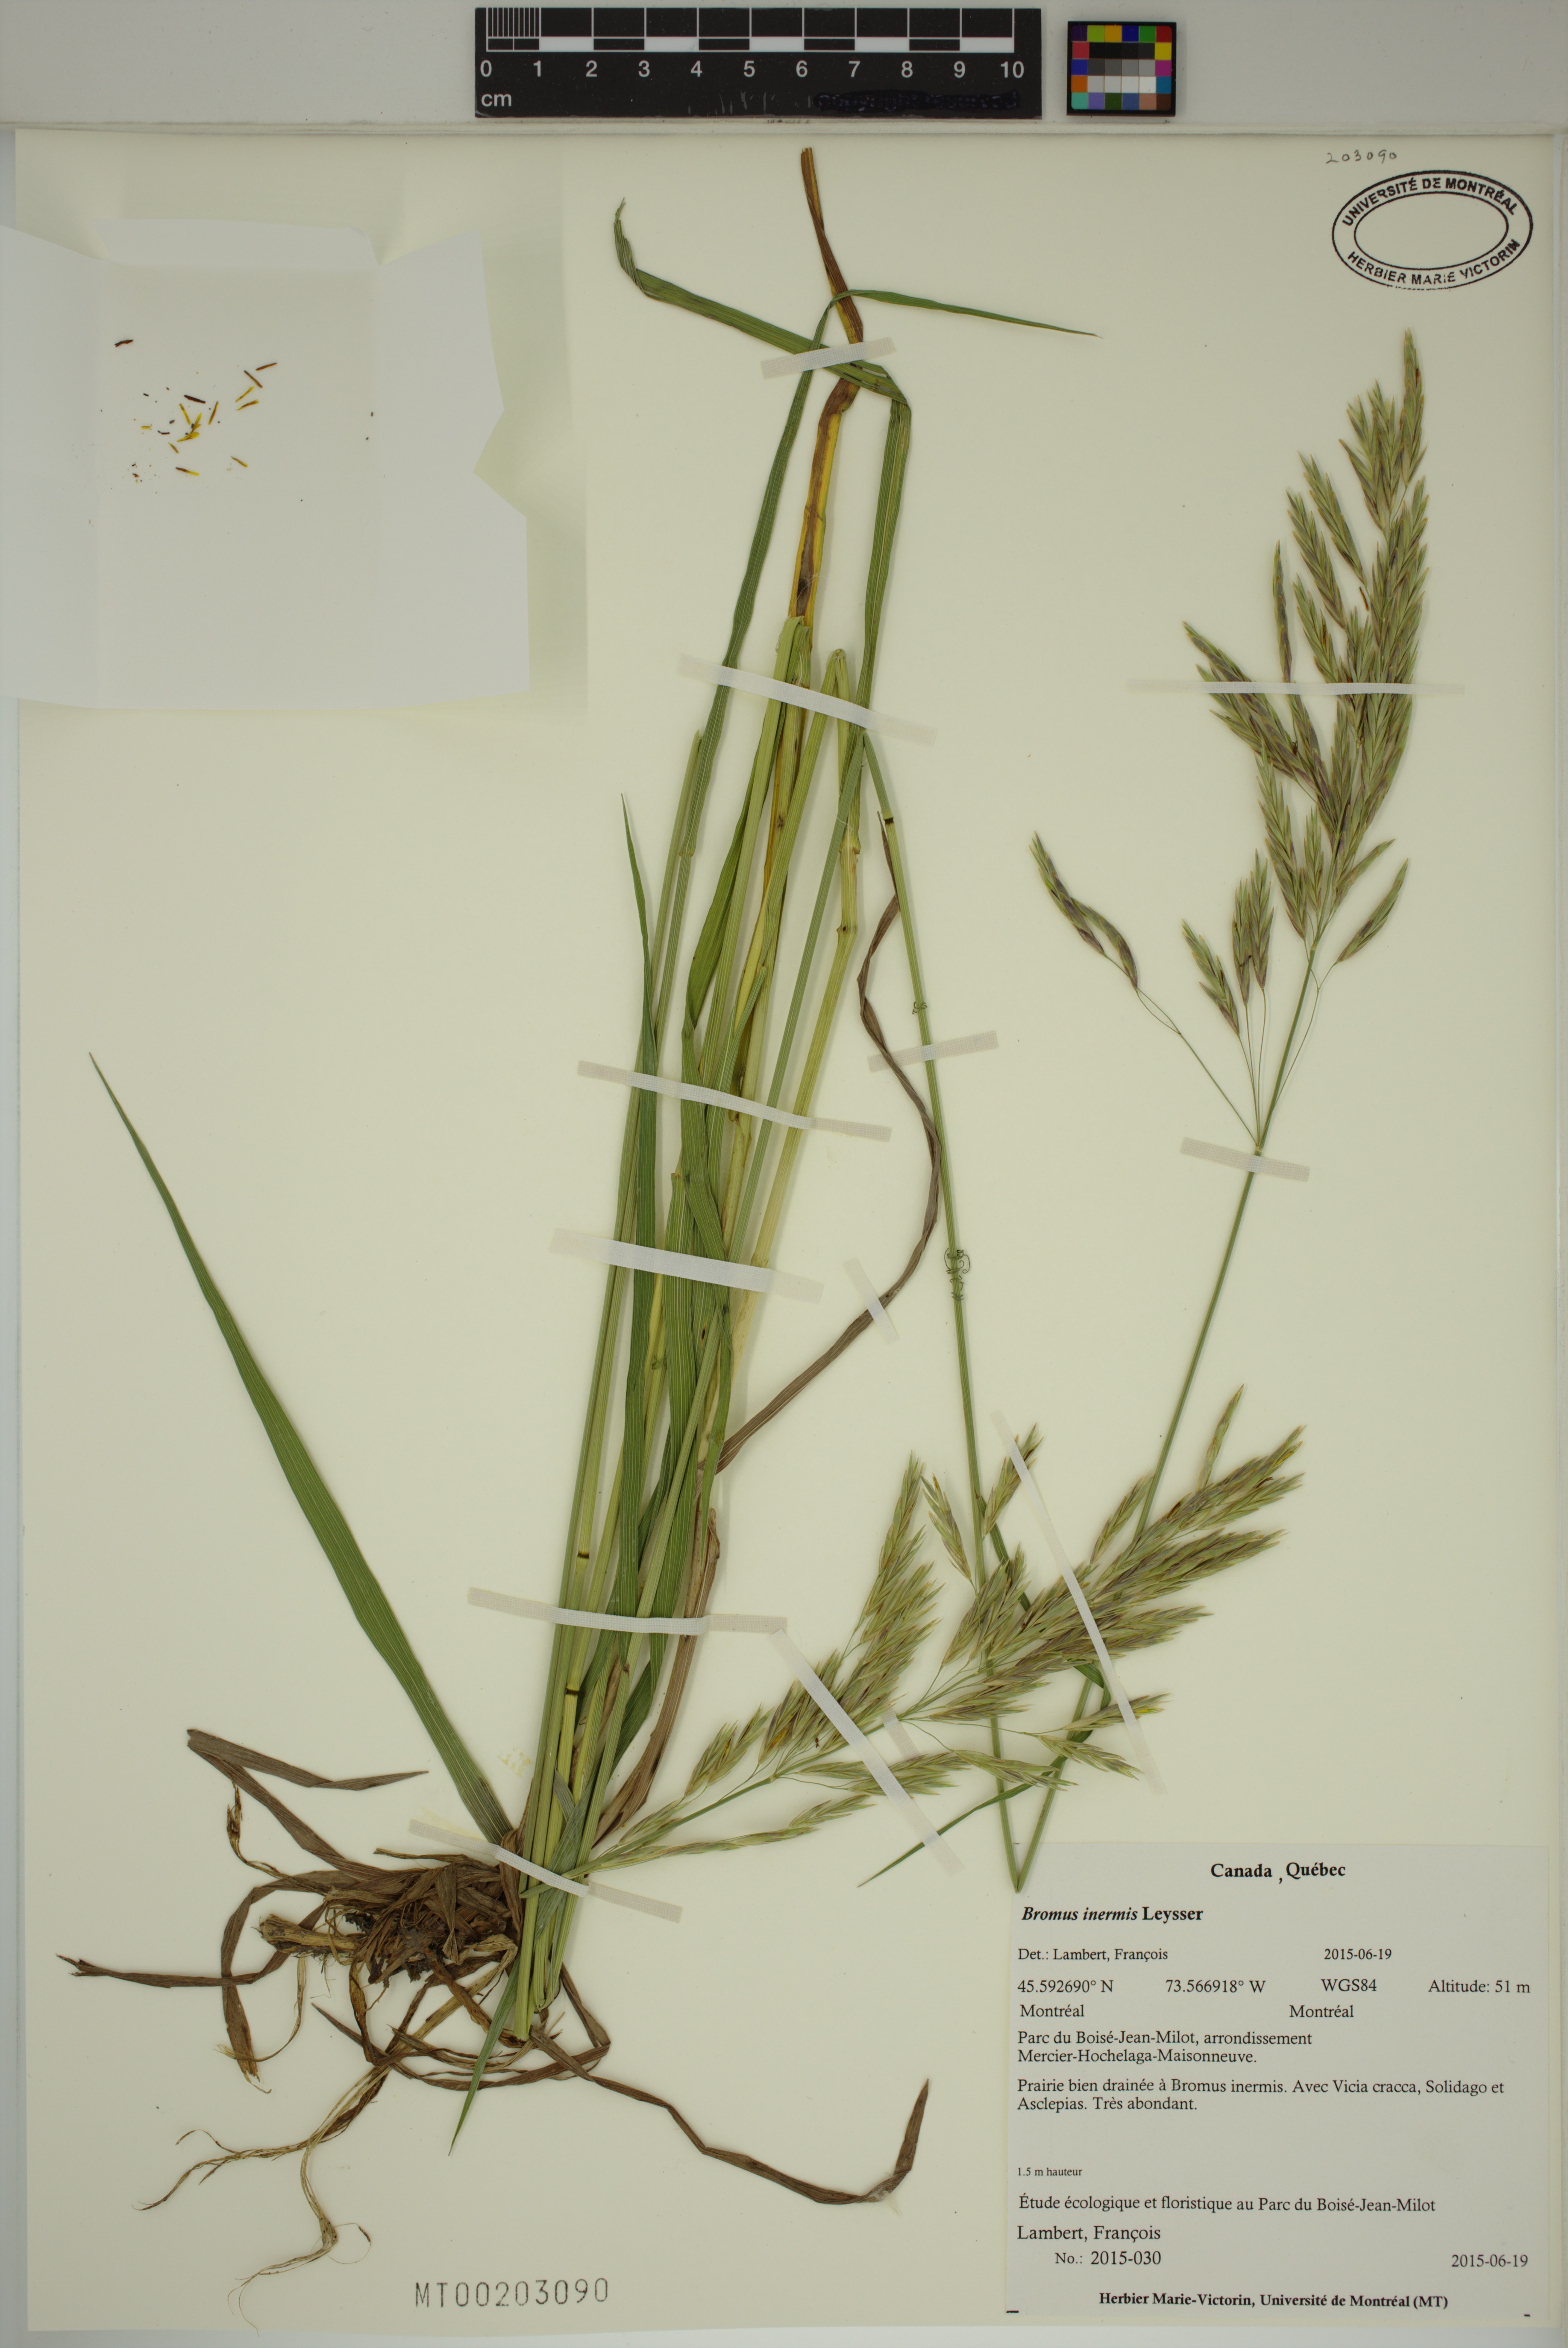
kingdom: Plantae
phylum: Tracheophyta
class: Liliopsida
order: Poales
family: Poaceae
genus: Bromus
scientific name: Bromus inermis
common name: Smooth brome
